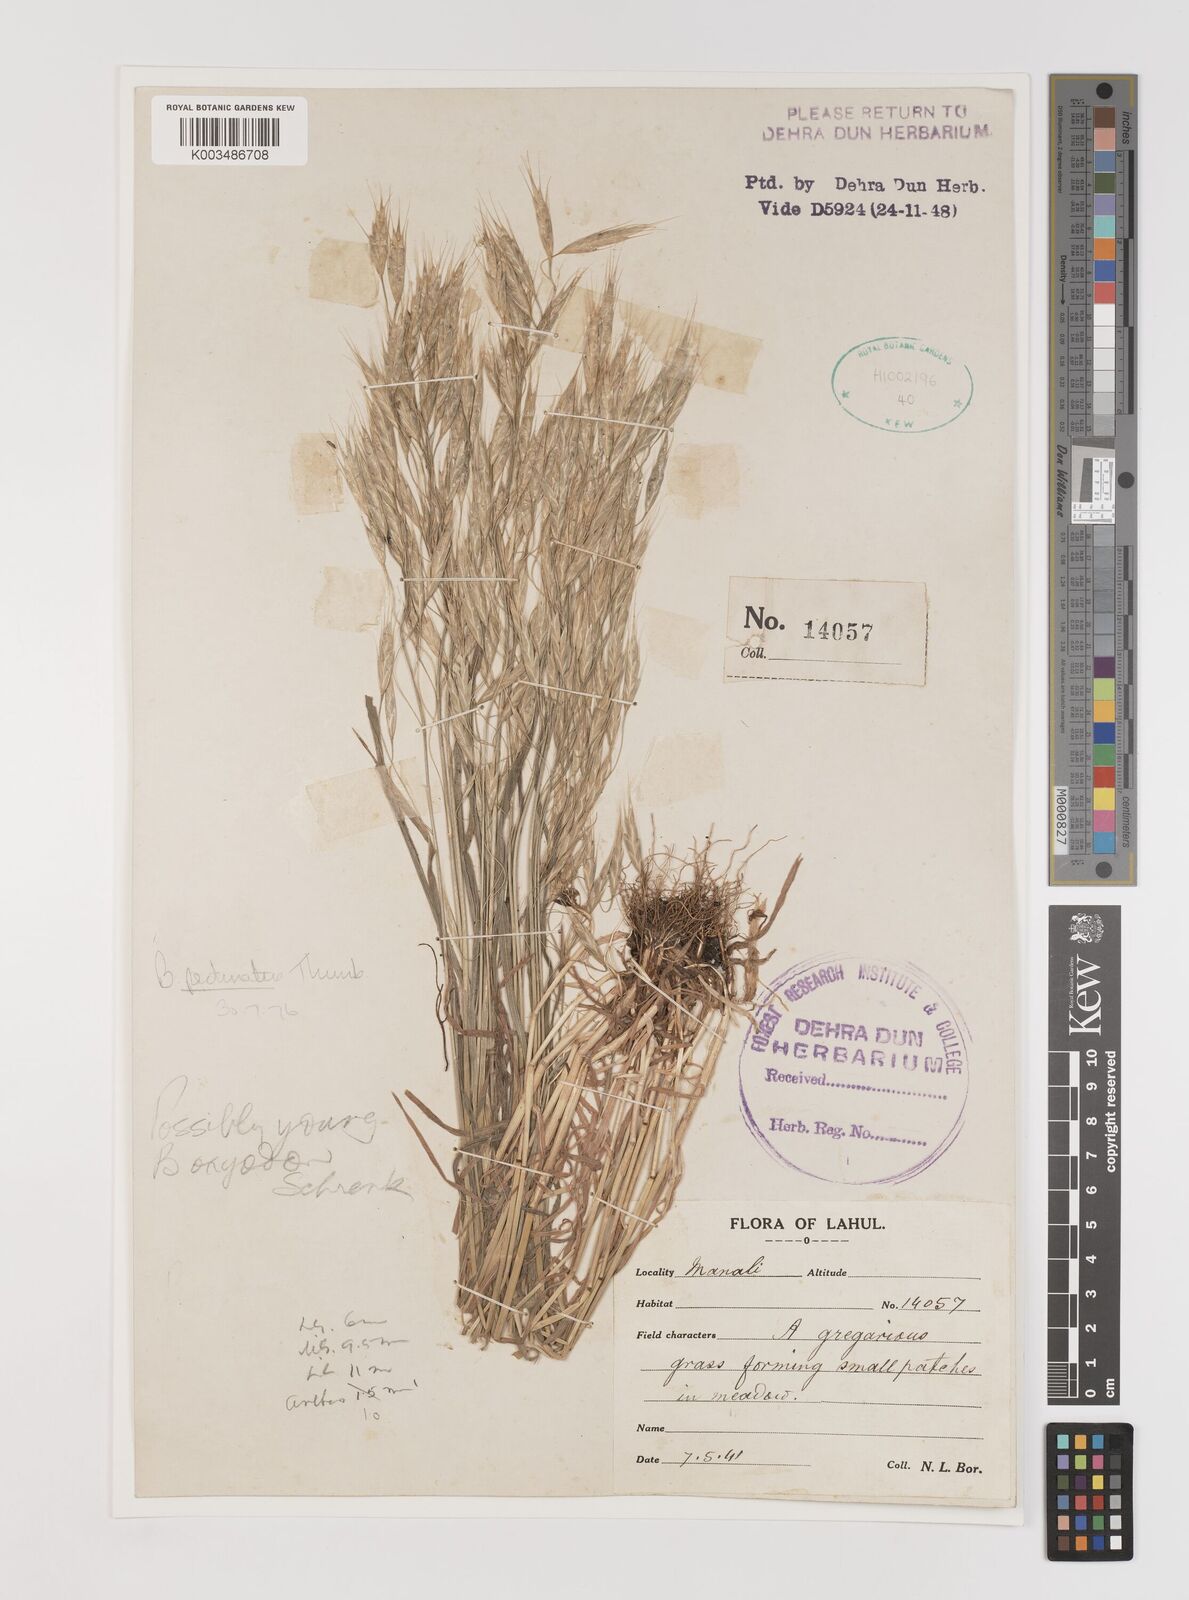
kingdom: Plantae
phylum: Tracheophyta
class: Liliopsida
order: Poales
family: Poaceae
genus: Bromus
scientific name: Bromus pectinatus
